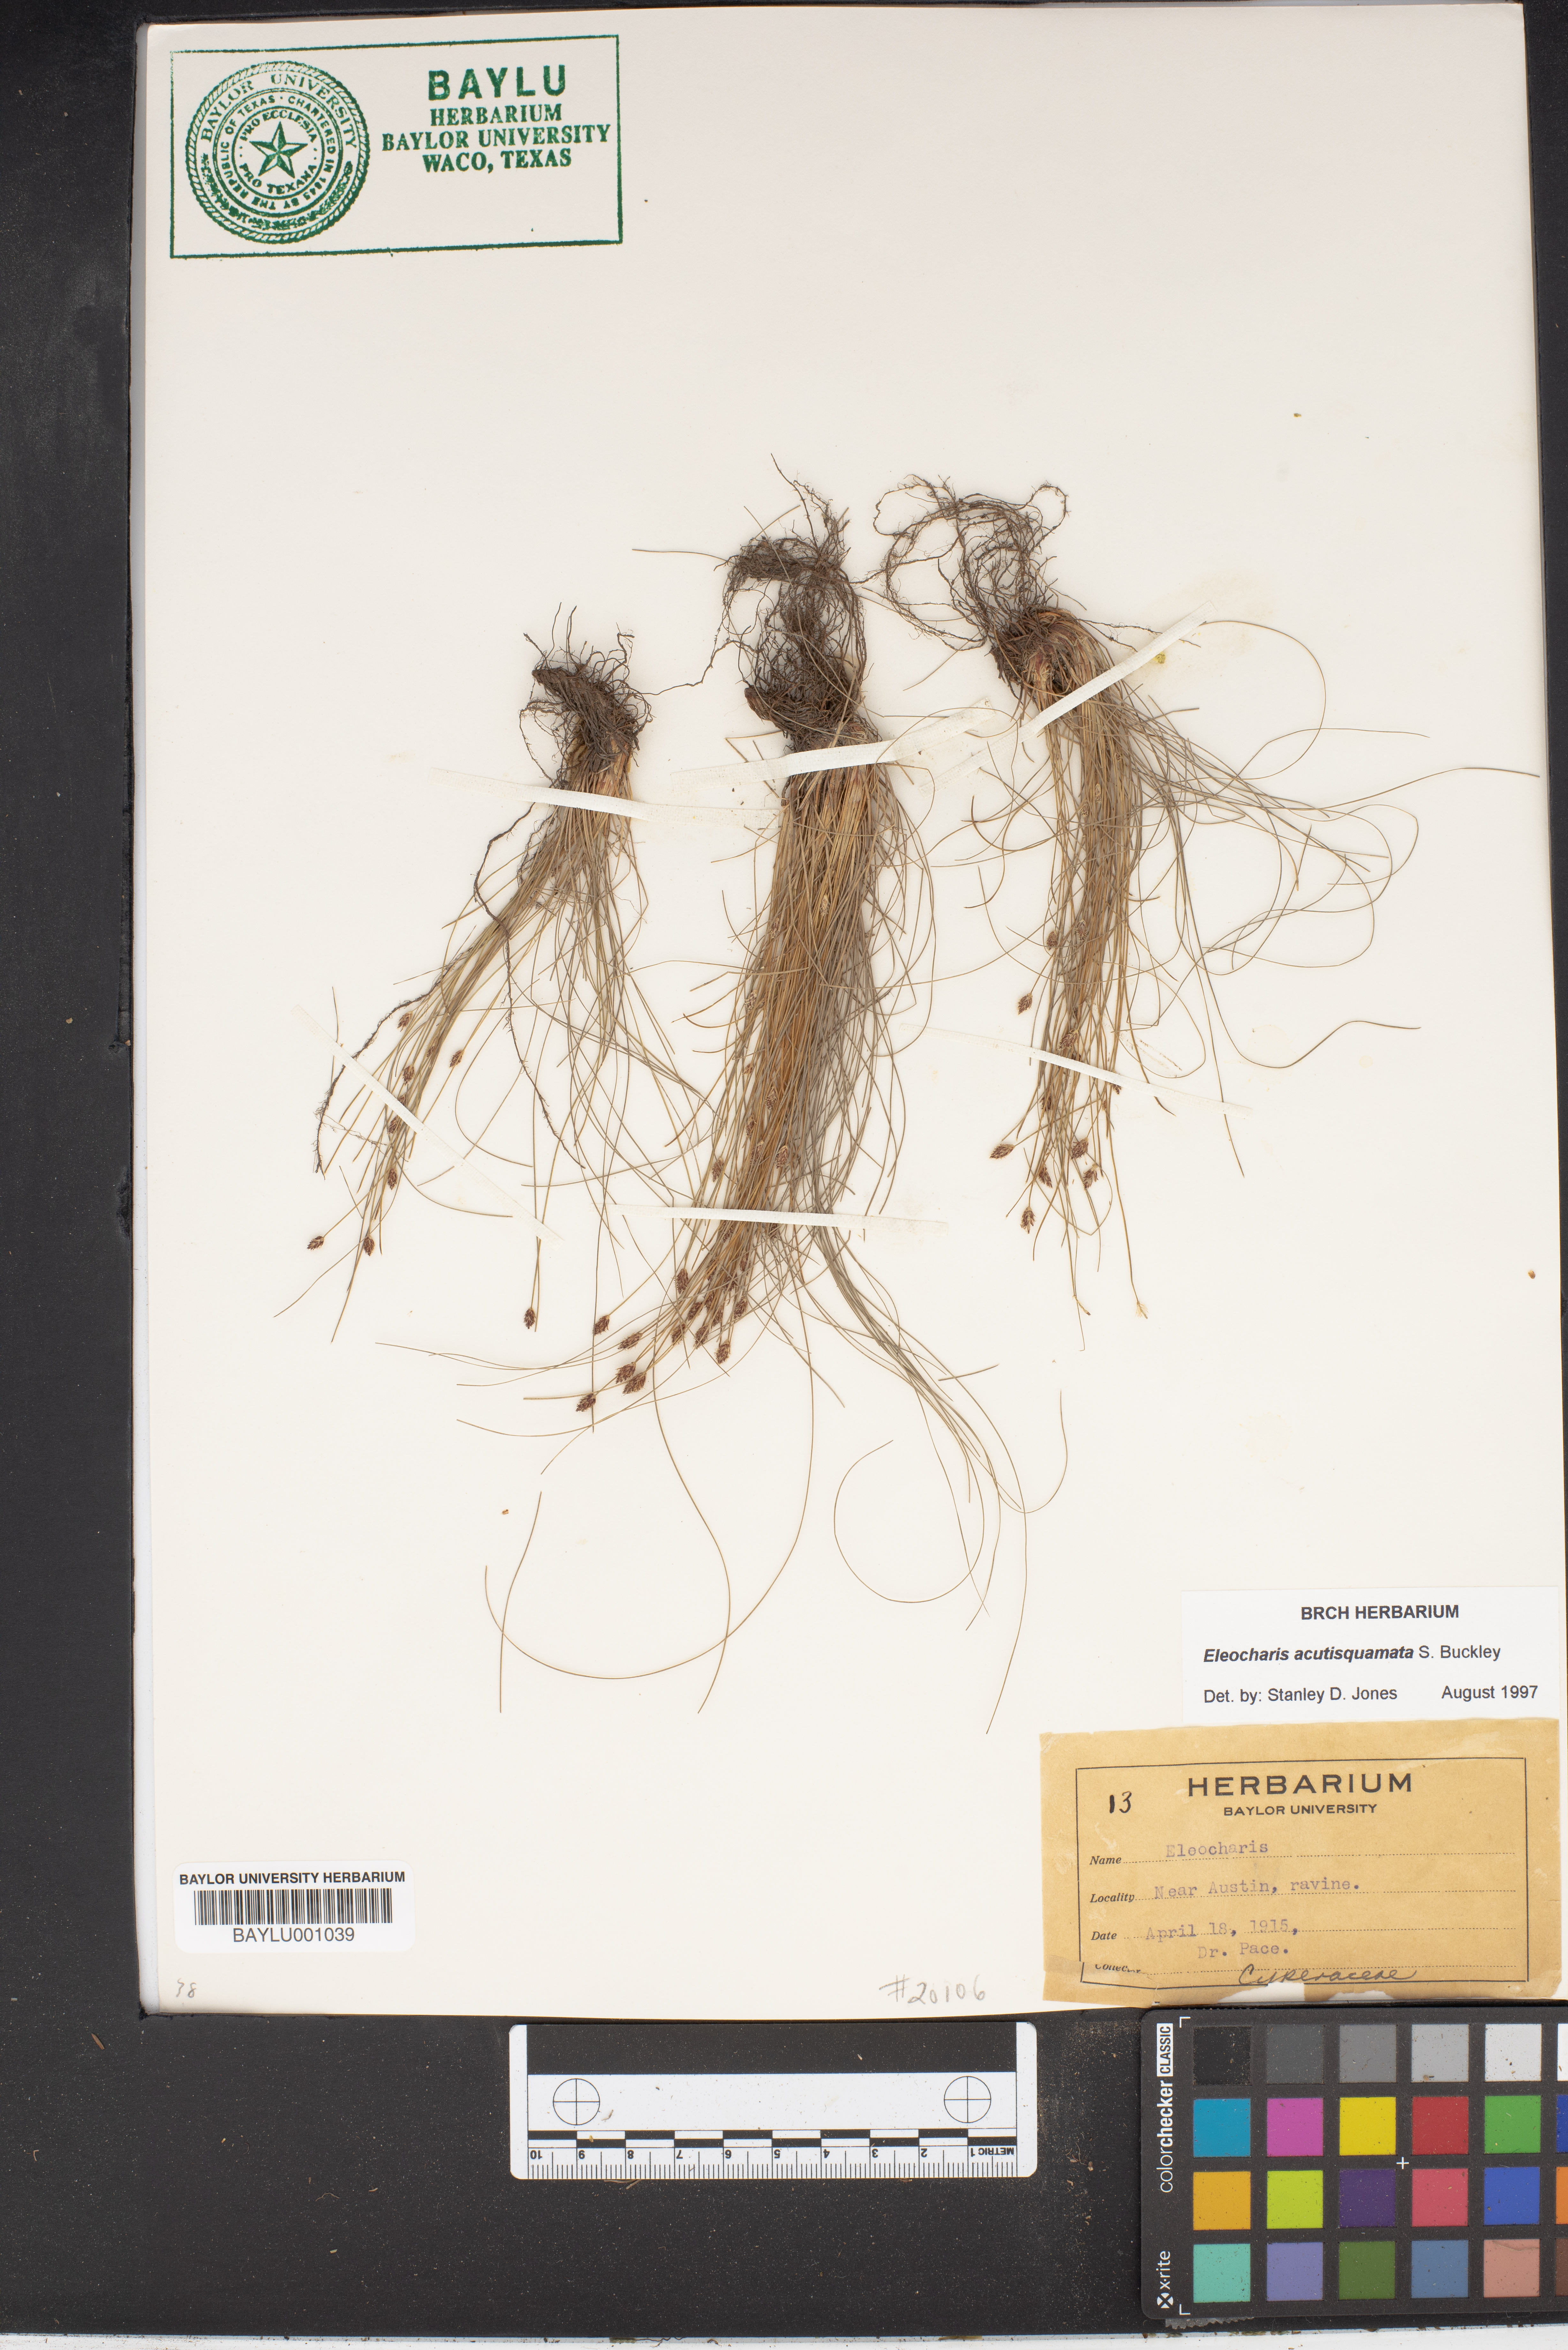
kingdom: Plantae
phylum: Tracheophyta
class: Liliopsida
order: Poales
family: Cyperaceae
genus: Eleocharis
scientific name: Eleocharis compressa
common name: Flat-stem spike-rush
